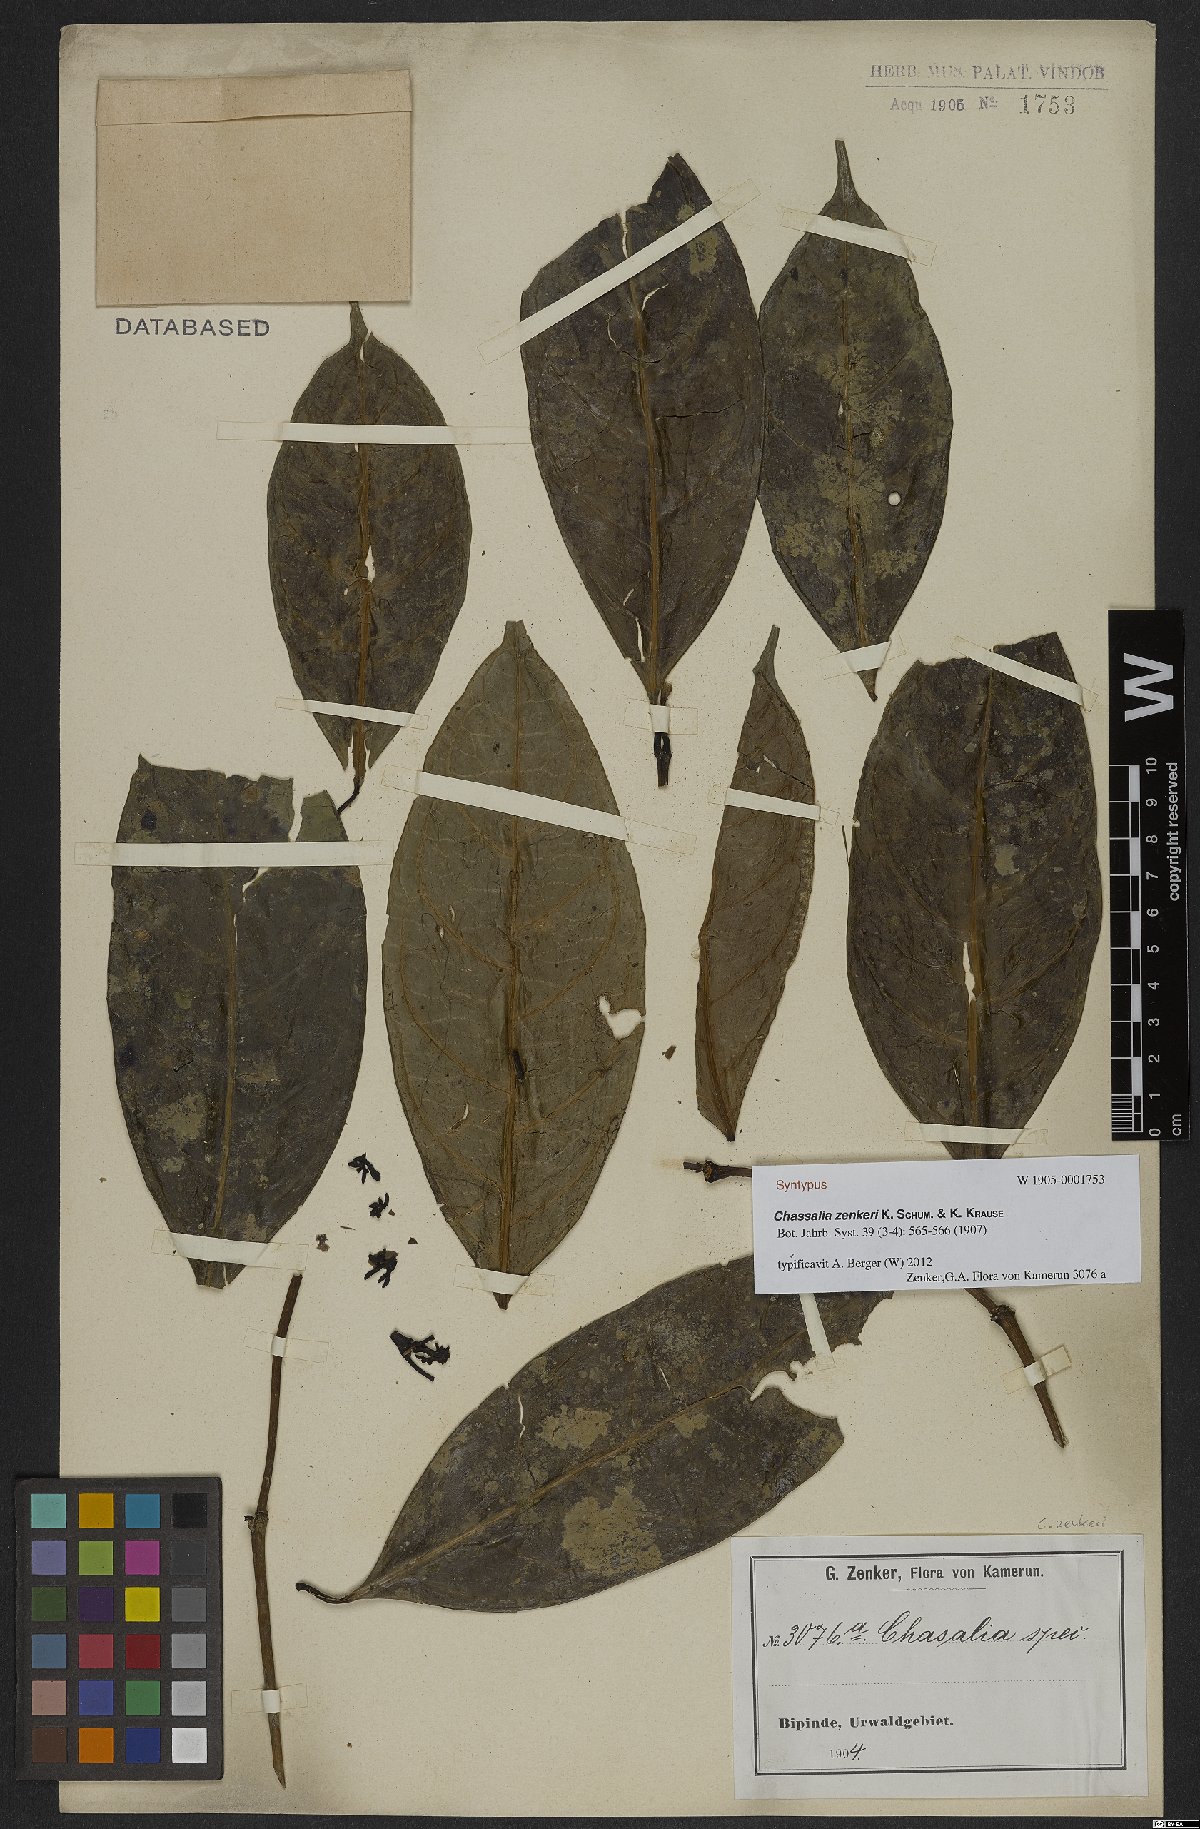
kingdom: Plantae
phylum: Tracheophyta
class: Magnoliopsida
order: Gentianales
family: Rubiaceae
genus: Chassalia
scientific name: Chassalia zenkeri
